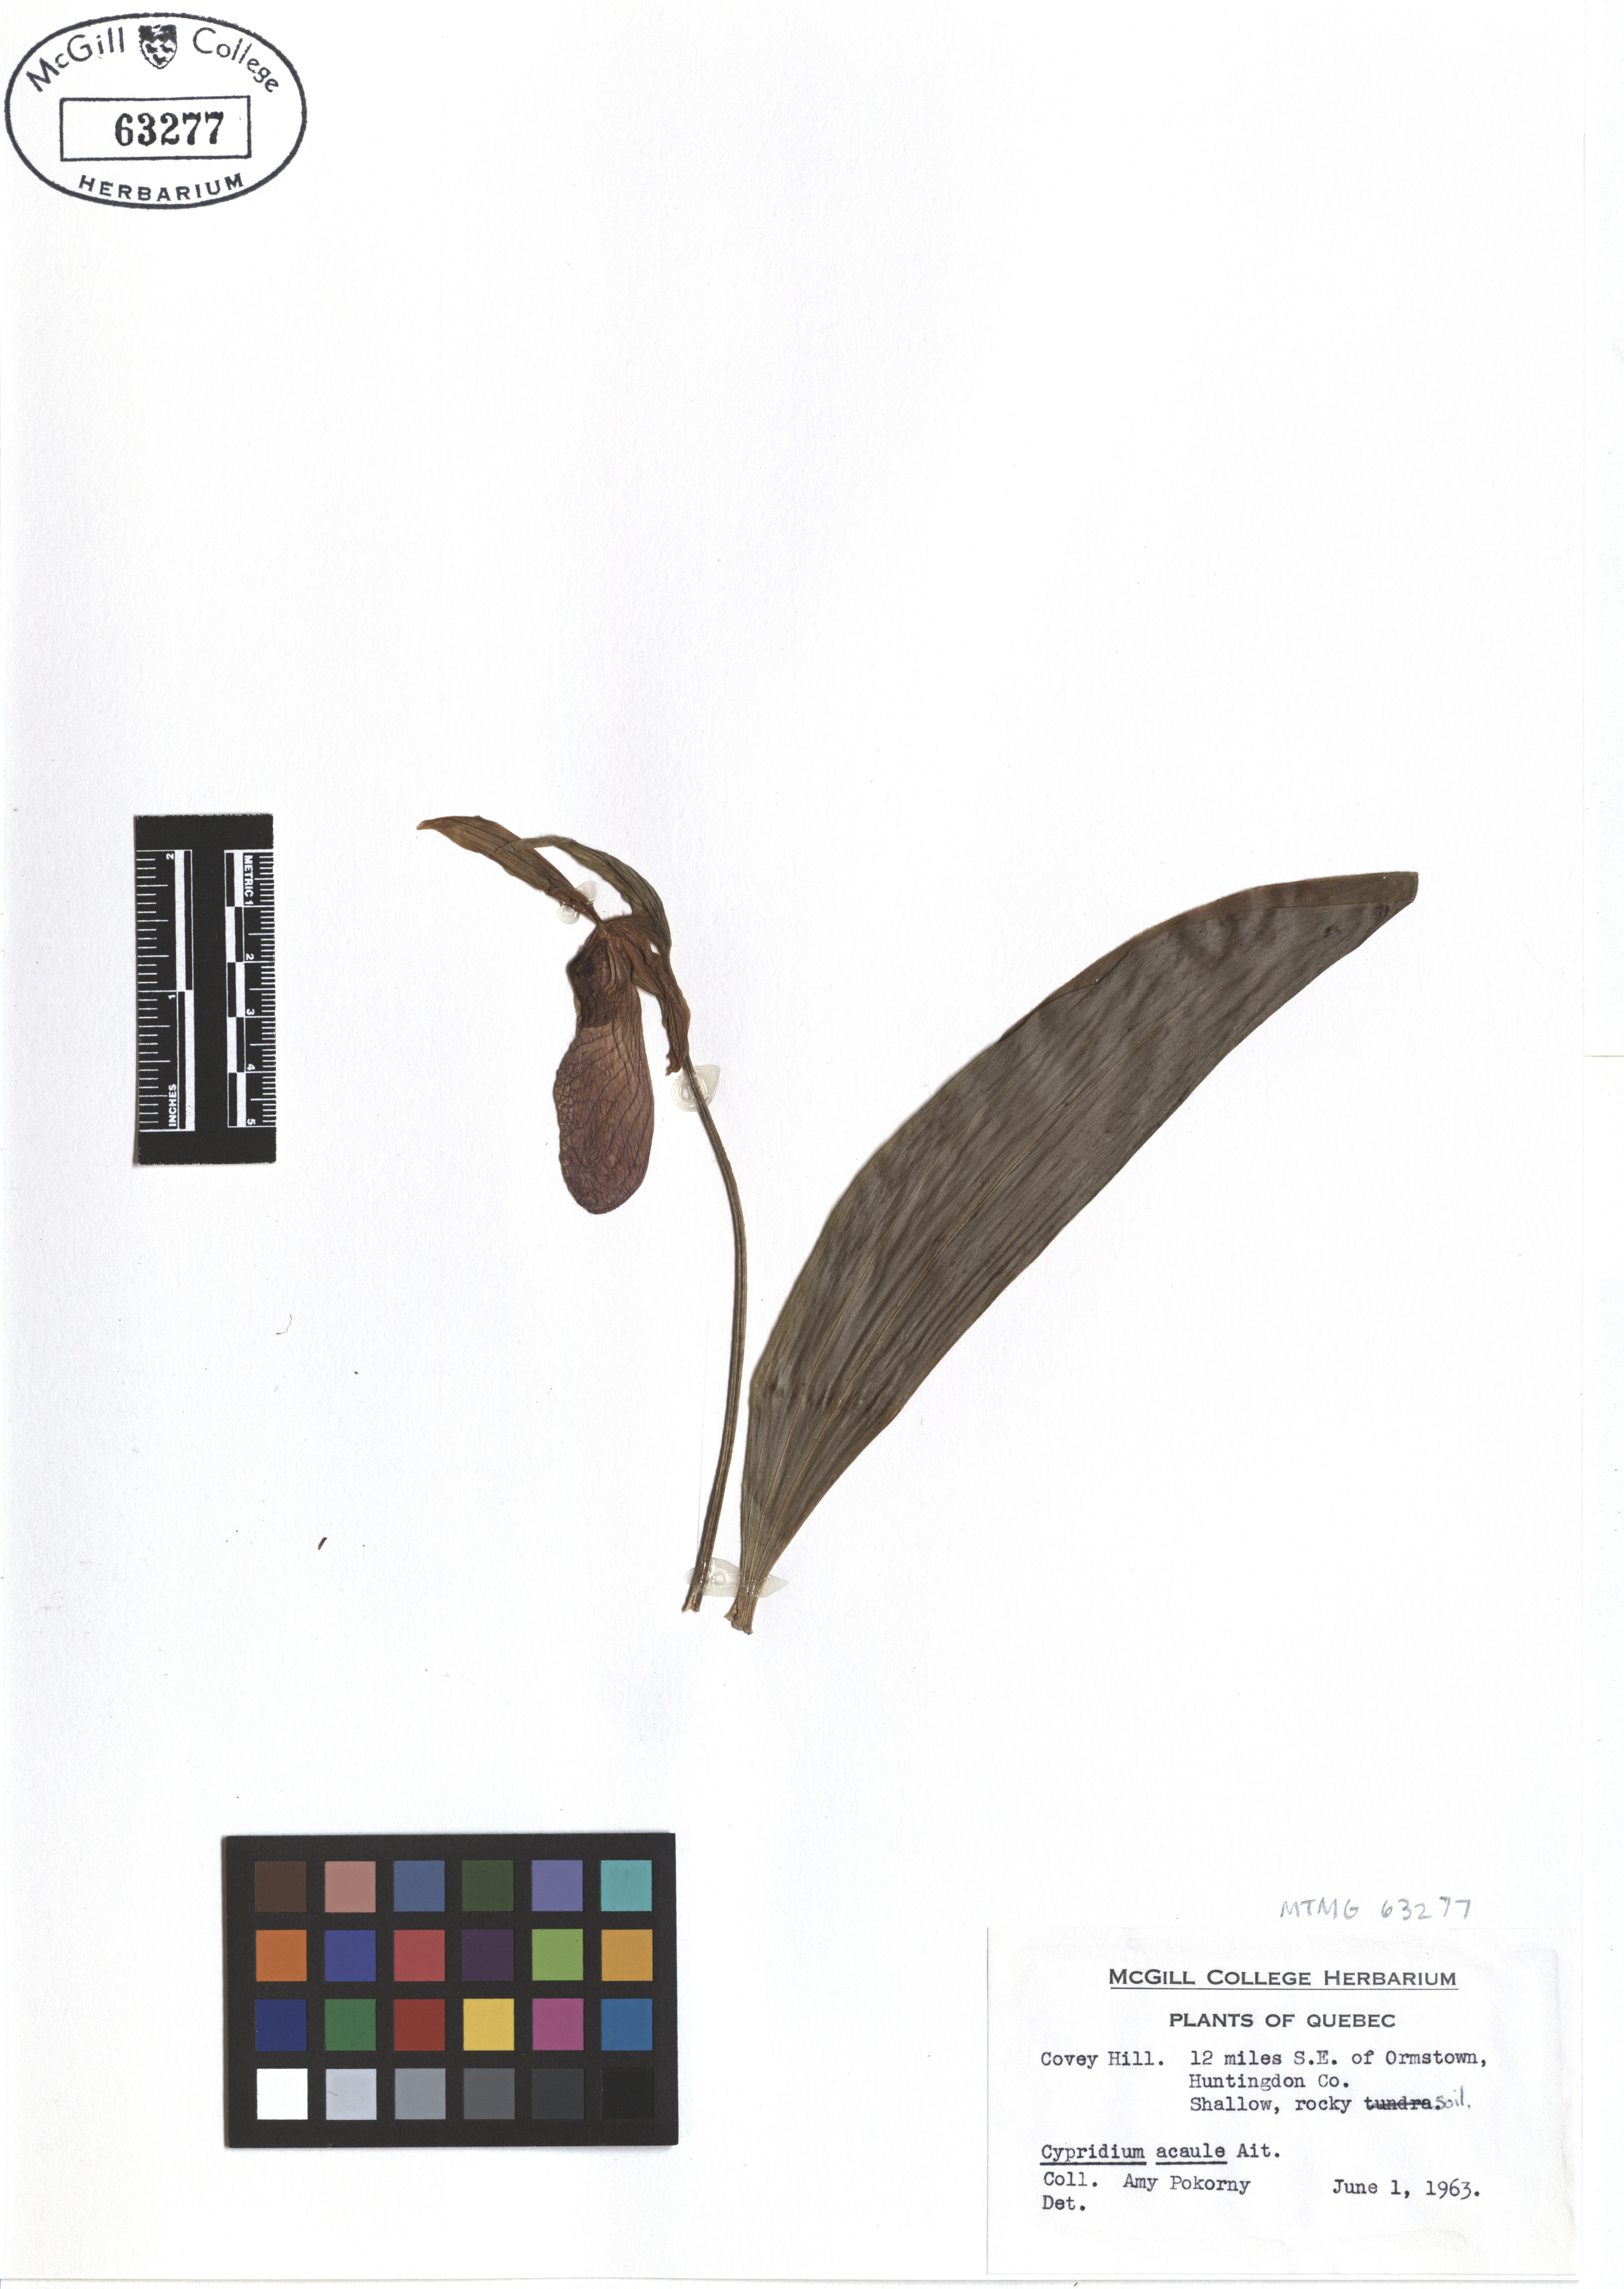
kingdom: Plantae
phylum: Tracheophyta
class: Liliopsida
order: Asparagales
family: Orchidaceae
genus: Cypripedium
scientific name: Cypripedium acaule
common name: Pink lady's-slipper
